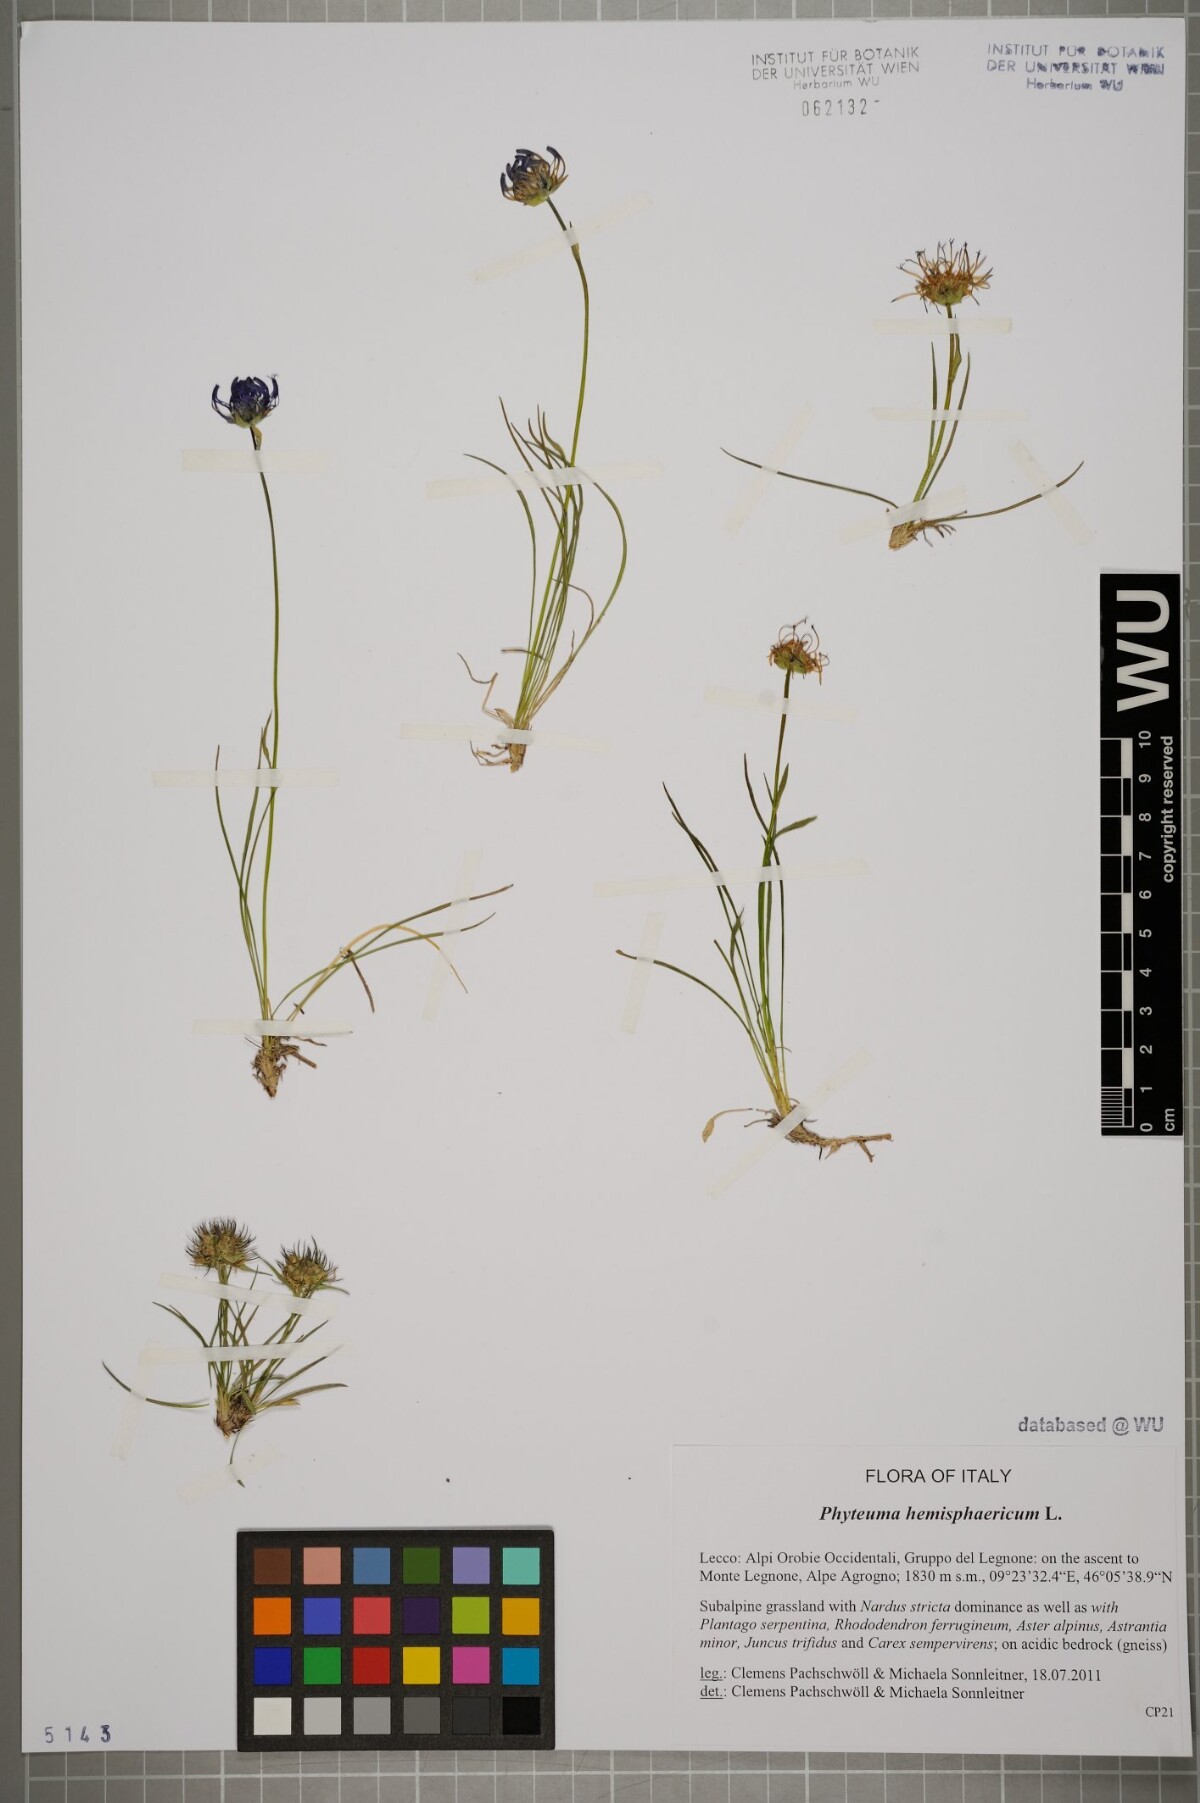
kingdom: Plantae
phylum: Tracheophyta
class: Magnoliopsida
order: Asterales
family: Campanulaceae
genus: Phyteuma
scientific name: Phyteuma hemisphaericum
